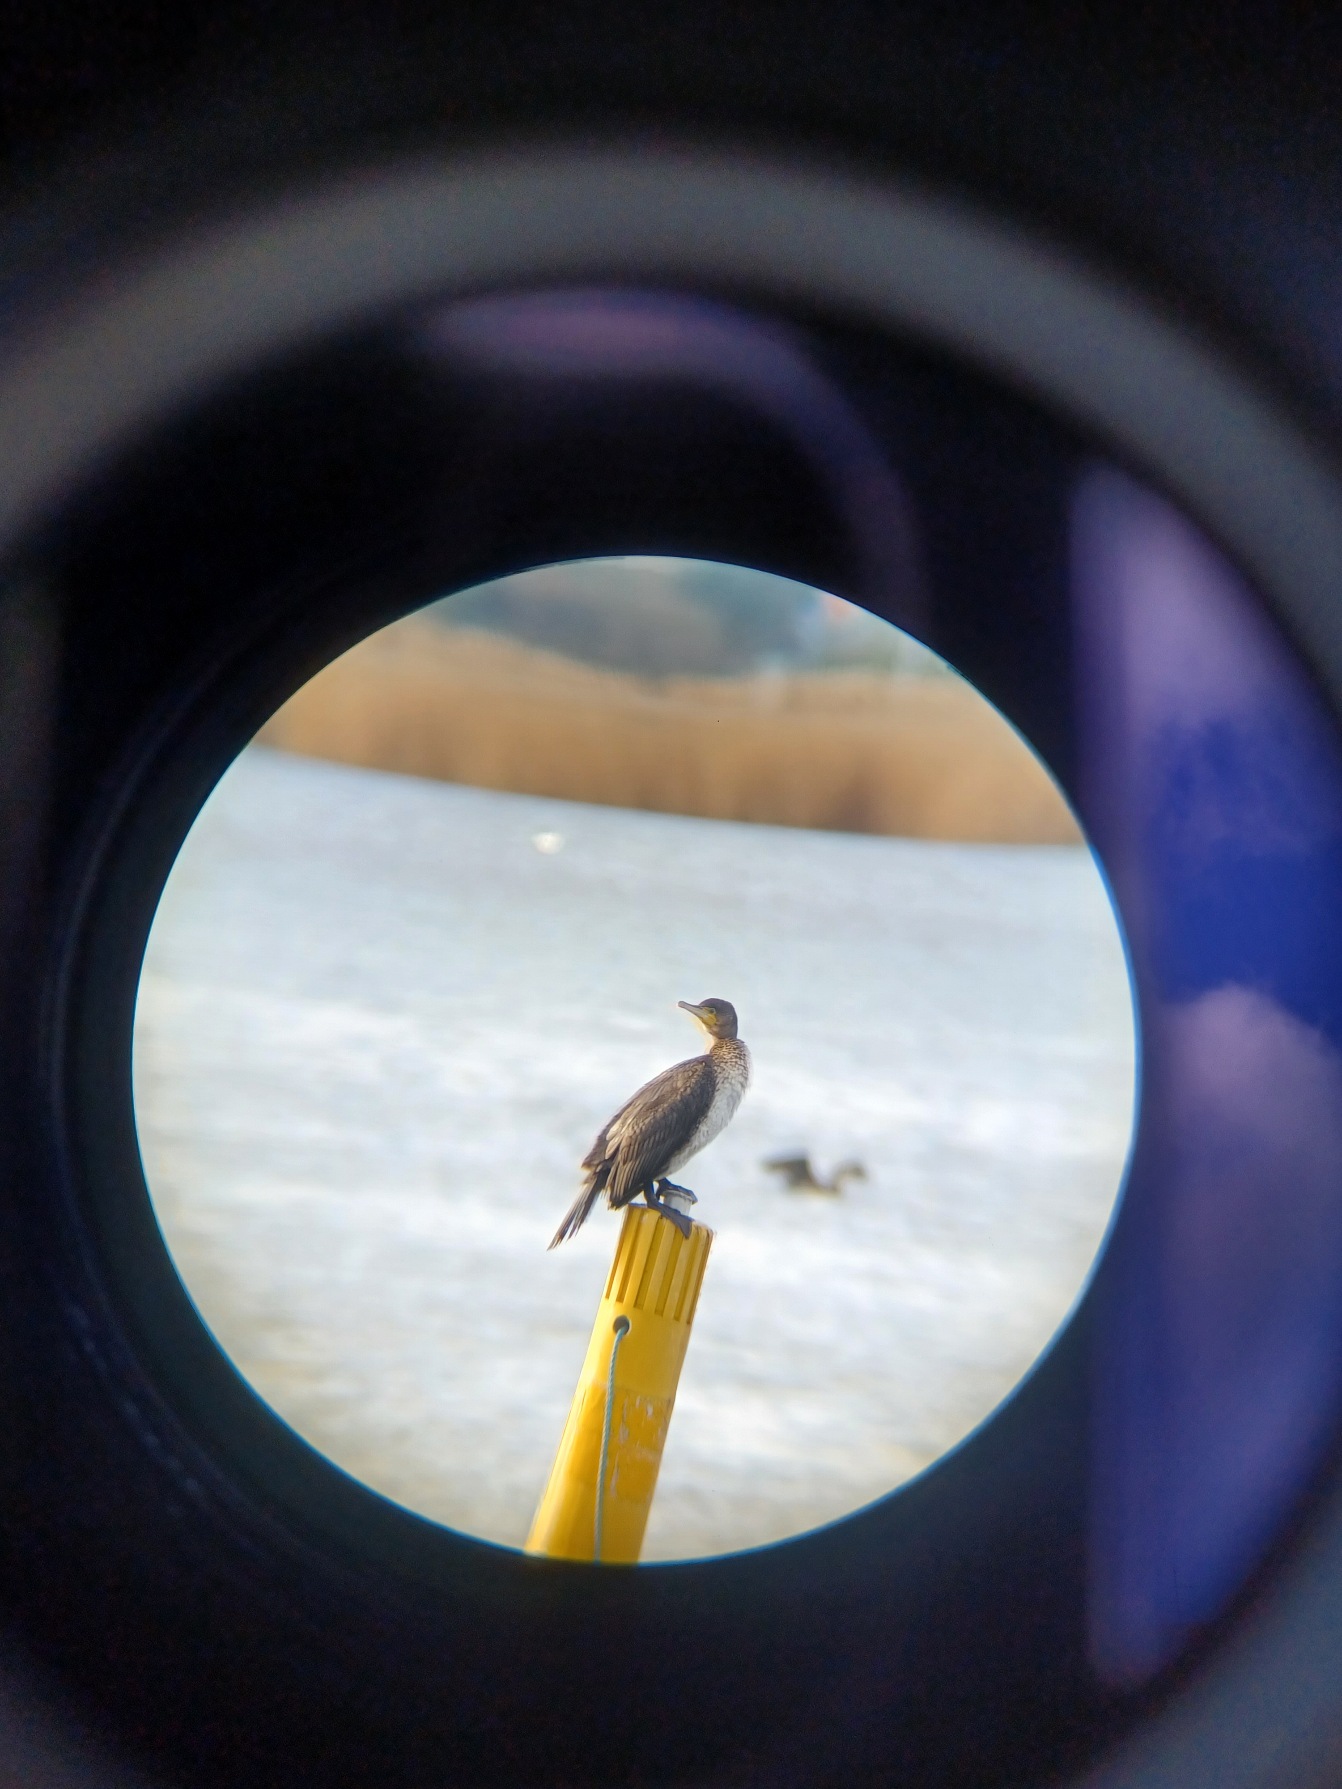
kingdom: Animalia
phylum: Chordata
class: Aves
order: Suliformes
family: Phalacrocoracidae
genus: Phalacrocorax
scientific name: Phalacrocorax carbo
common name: Skarv
